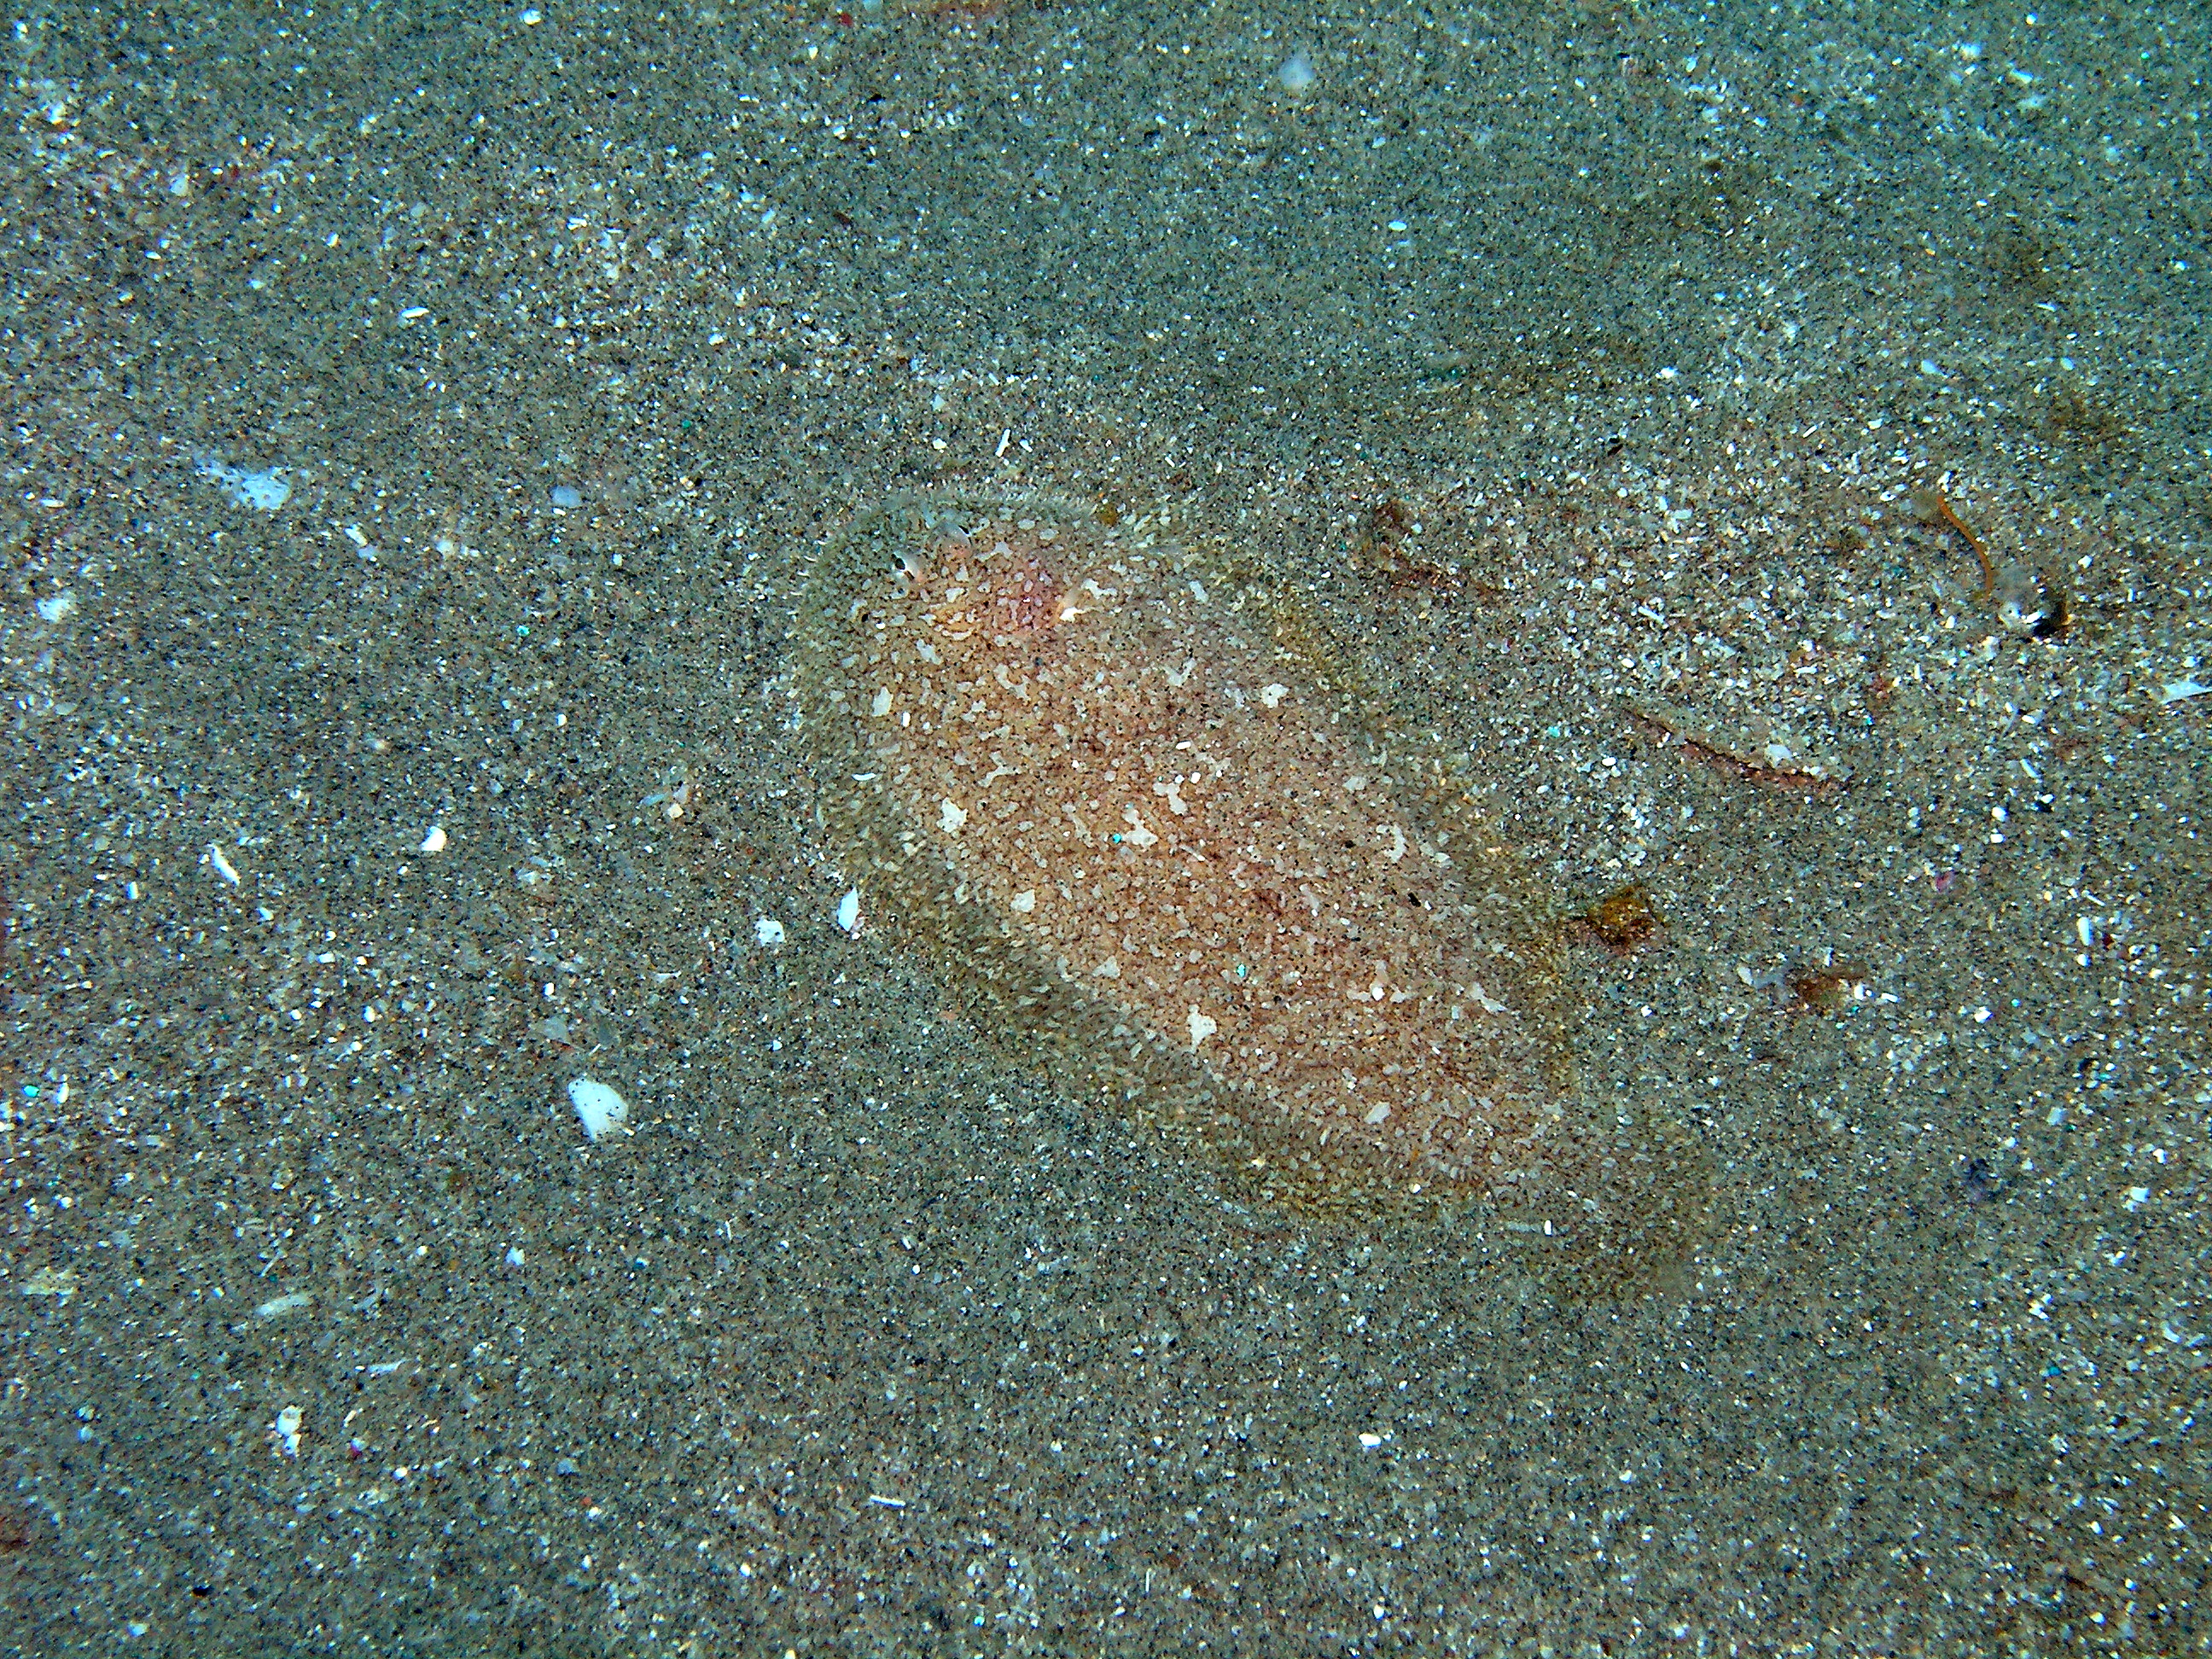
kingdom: Animalia
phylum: Chordata
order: Pleuronectiformes
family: Soleidae
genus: Aseraggodes
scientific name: Aseraggodes heemstrai
